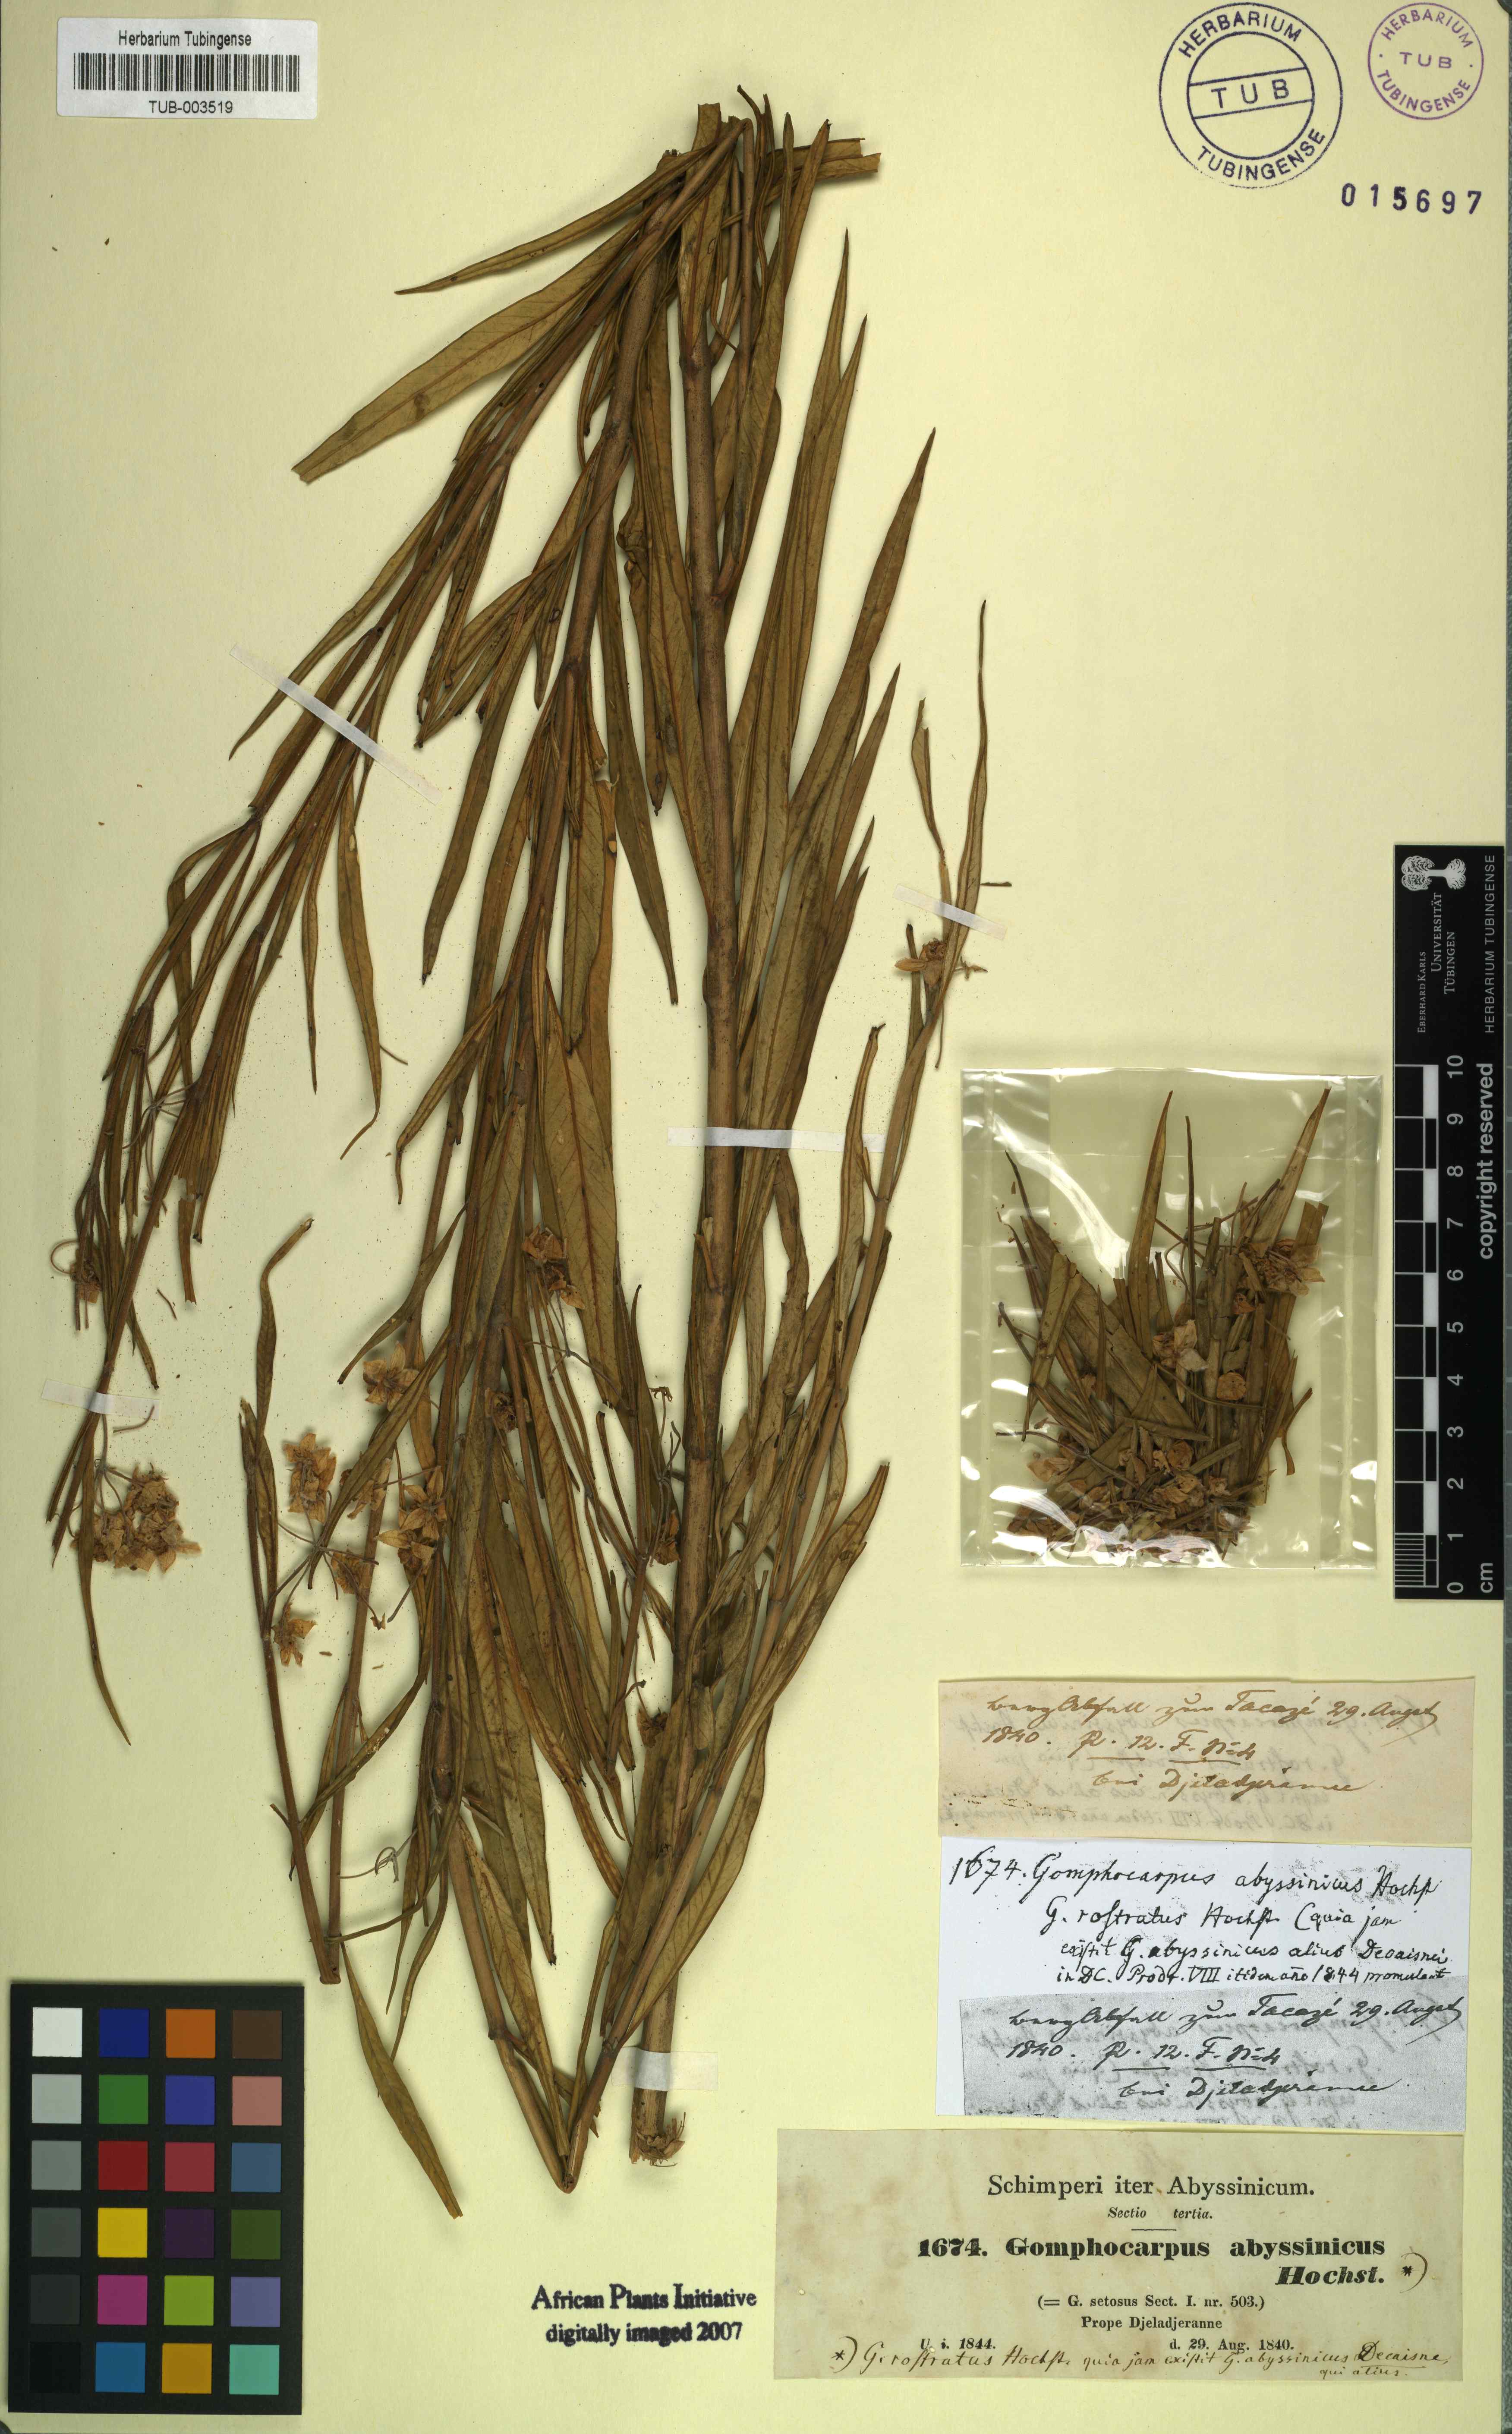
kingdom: Plantae
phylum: Tracheophyta
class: Magnoliopsida
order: Gentianales
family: Apocynaceae
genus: Gomphocarpus
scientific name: Gomphocarpus physocarpus
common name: Balloon cotton bush
